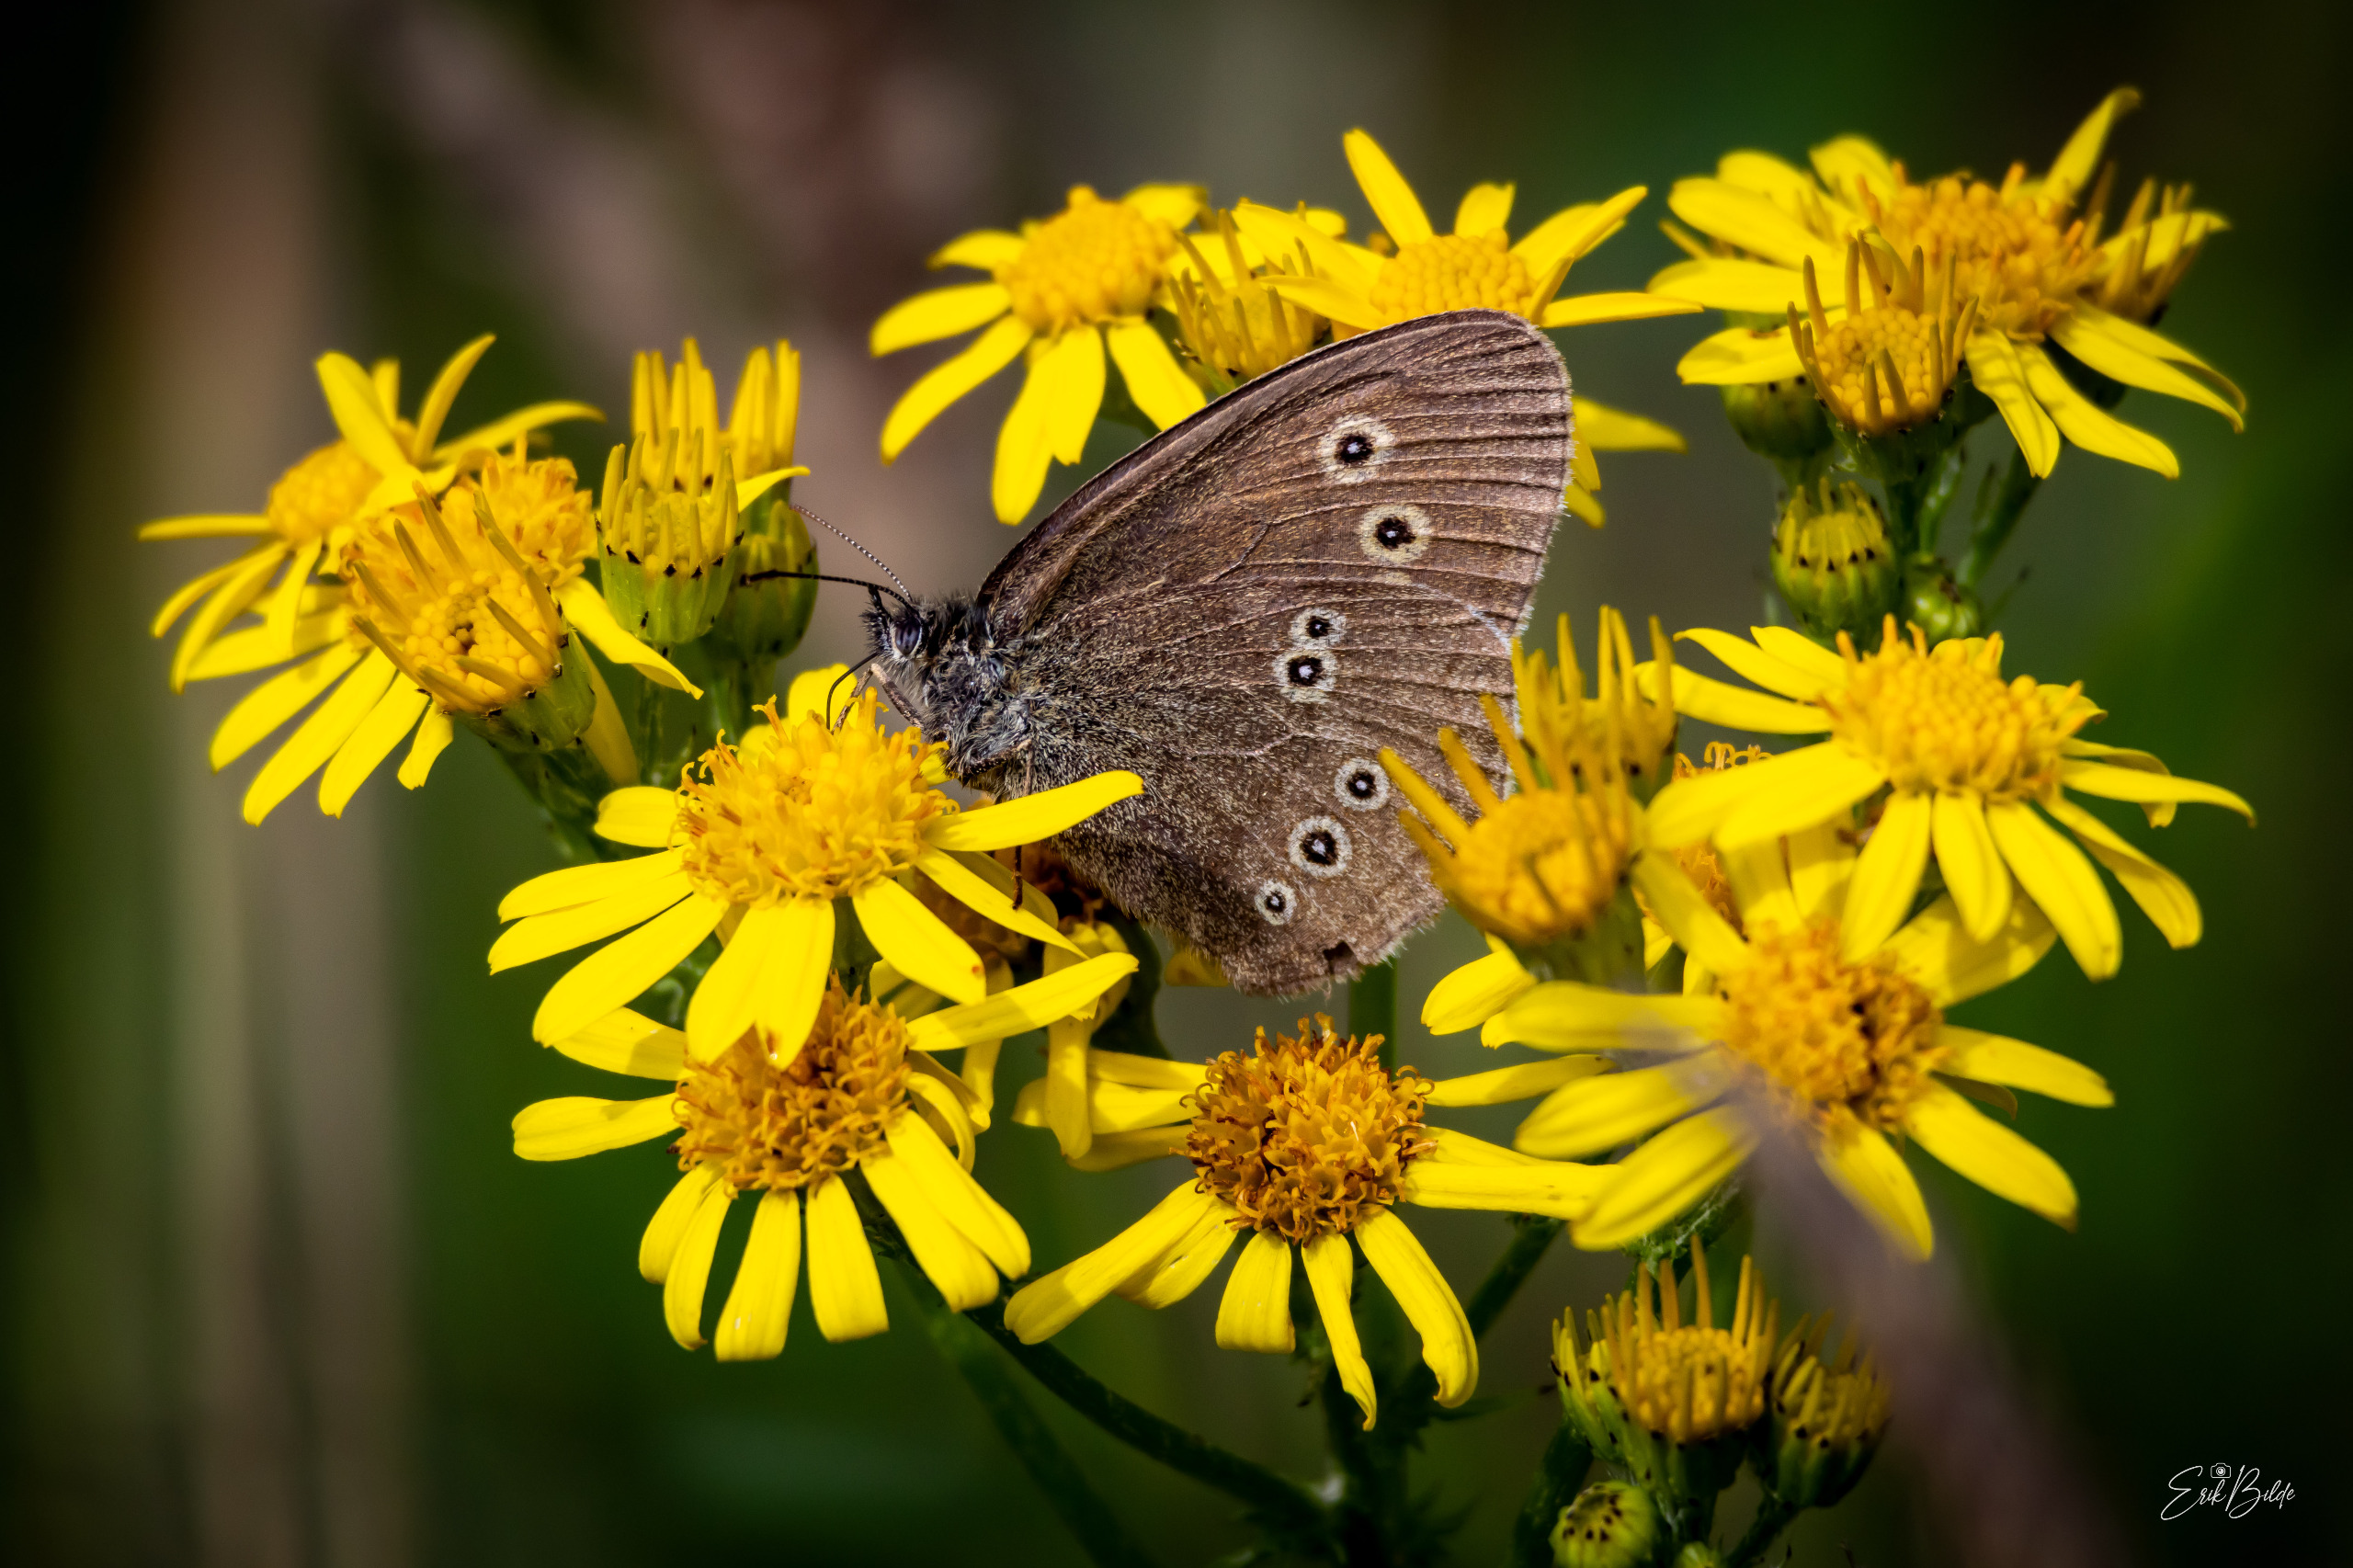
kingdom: Animalia
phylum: Arthropoda
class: Insecta
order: Lepidoptera
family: Nymphalidae
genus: Aphantopus
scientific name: Aphantopus hyperantus
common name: Engrandøje
